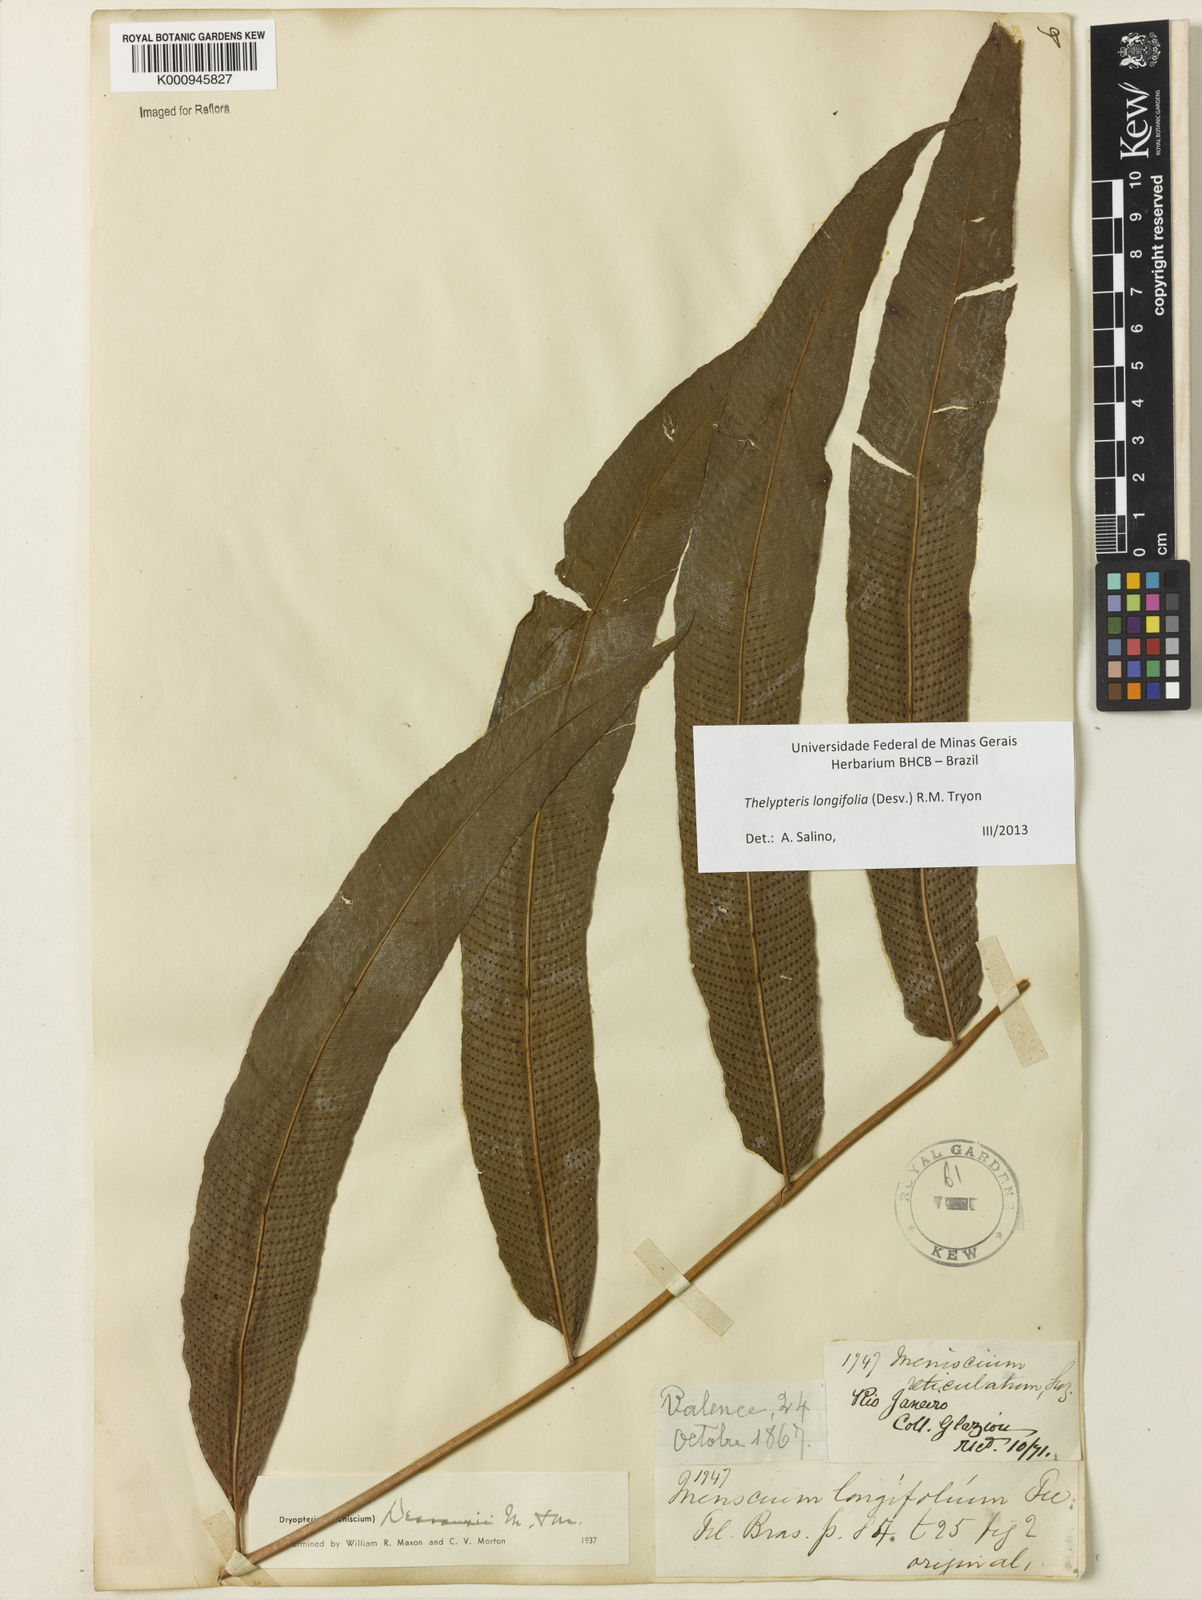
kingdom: Plantae
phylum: Tracheophyta
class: Polypodiopsida
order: Polypodiales
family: Thelypteridaceae
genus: Meniscium
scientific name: Meniscium longifolium
